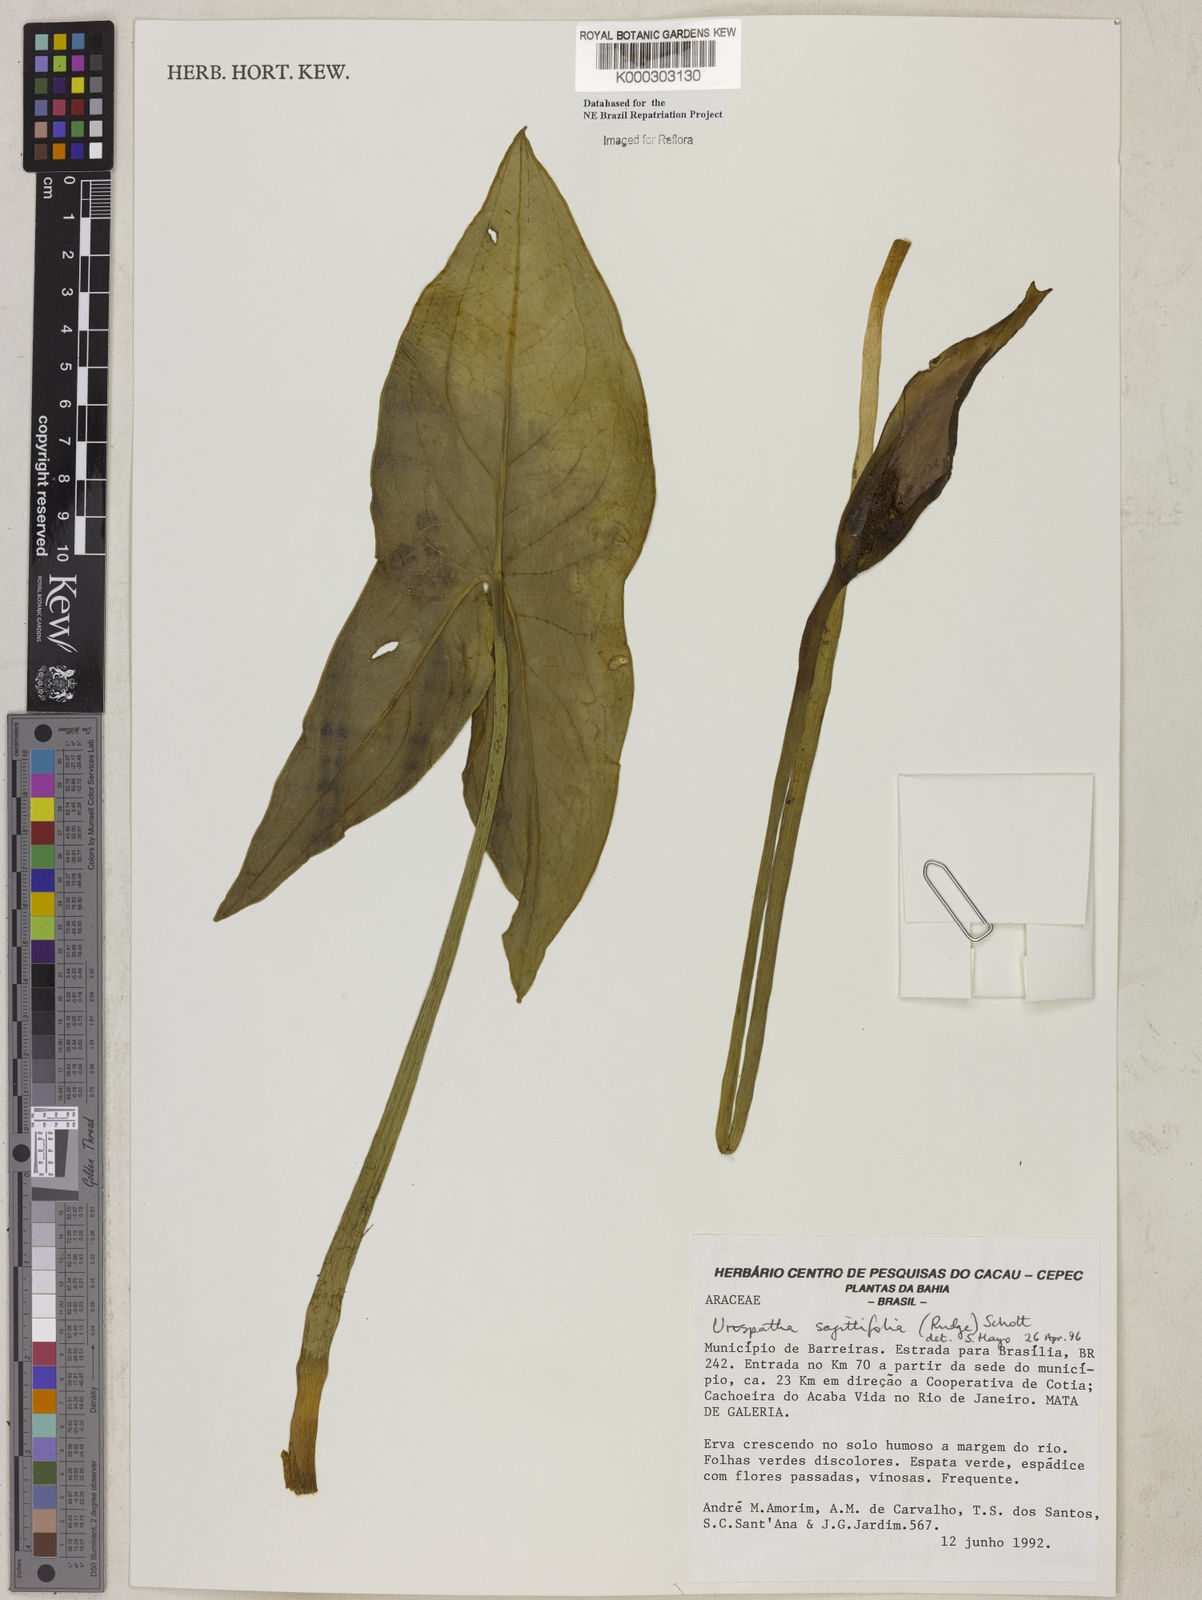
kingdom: Plantae
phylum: Tracheophyta
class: Liliopsida
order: Alismatales
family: Araceae
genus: Urospatha
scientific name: Urospatha sagittifolia
